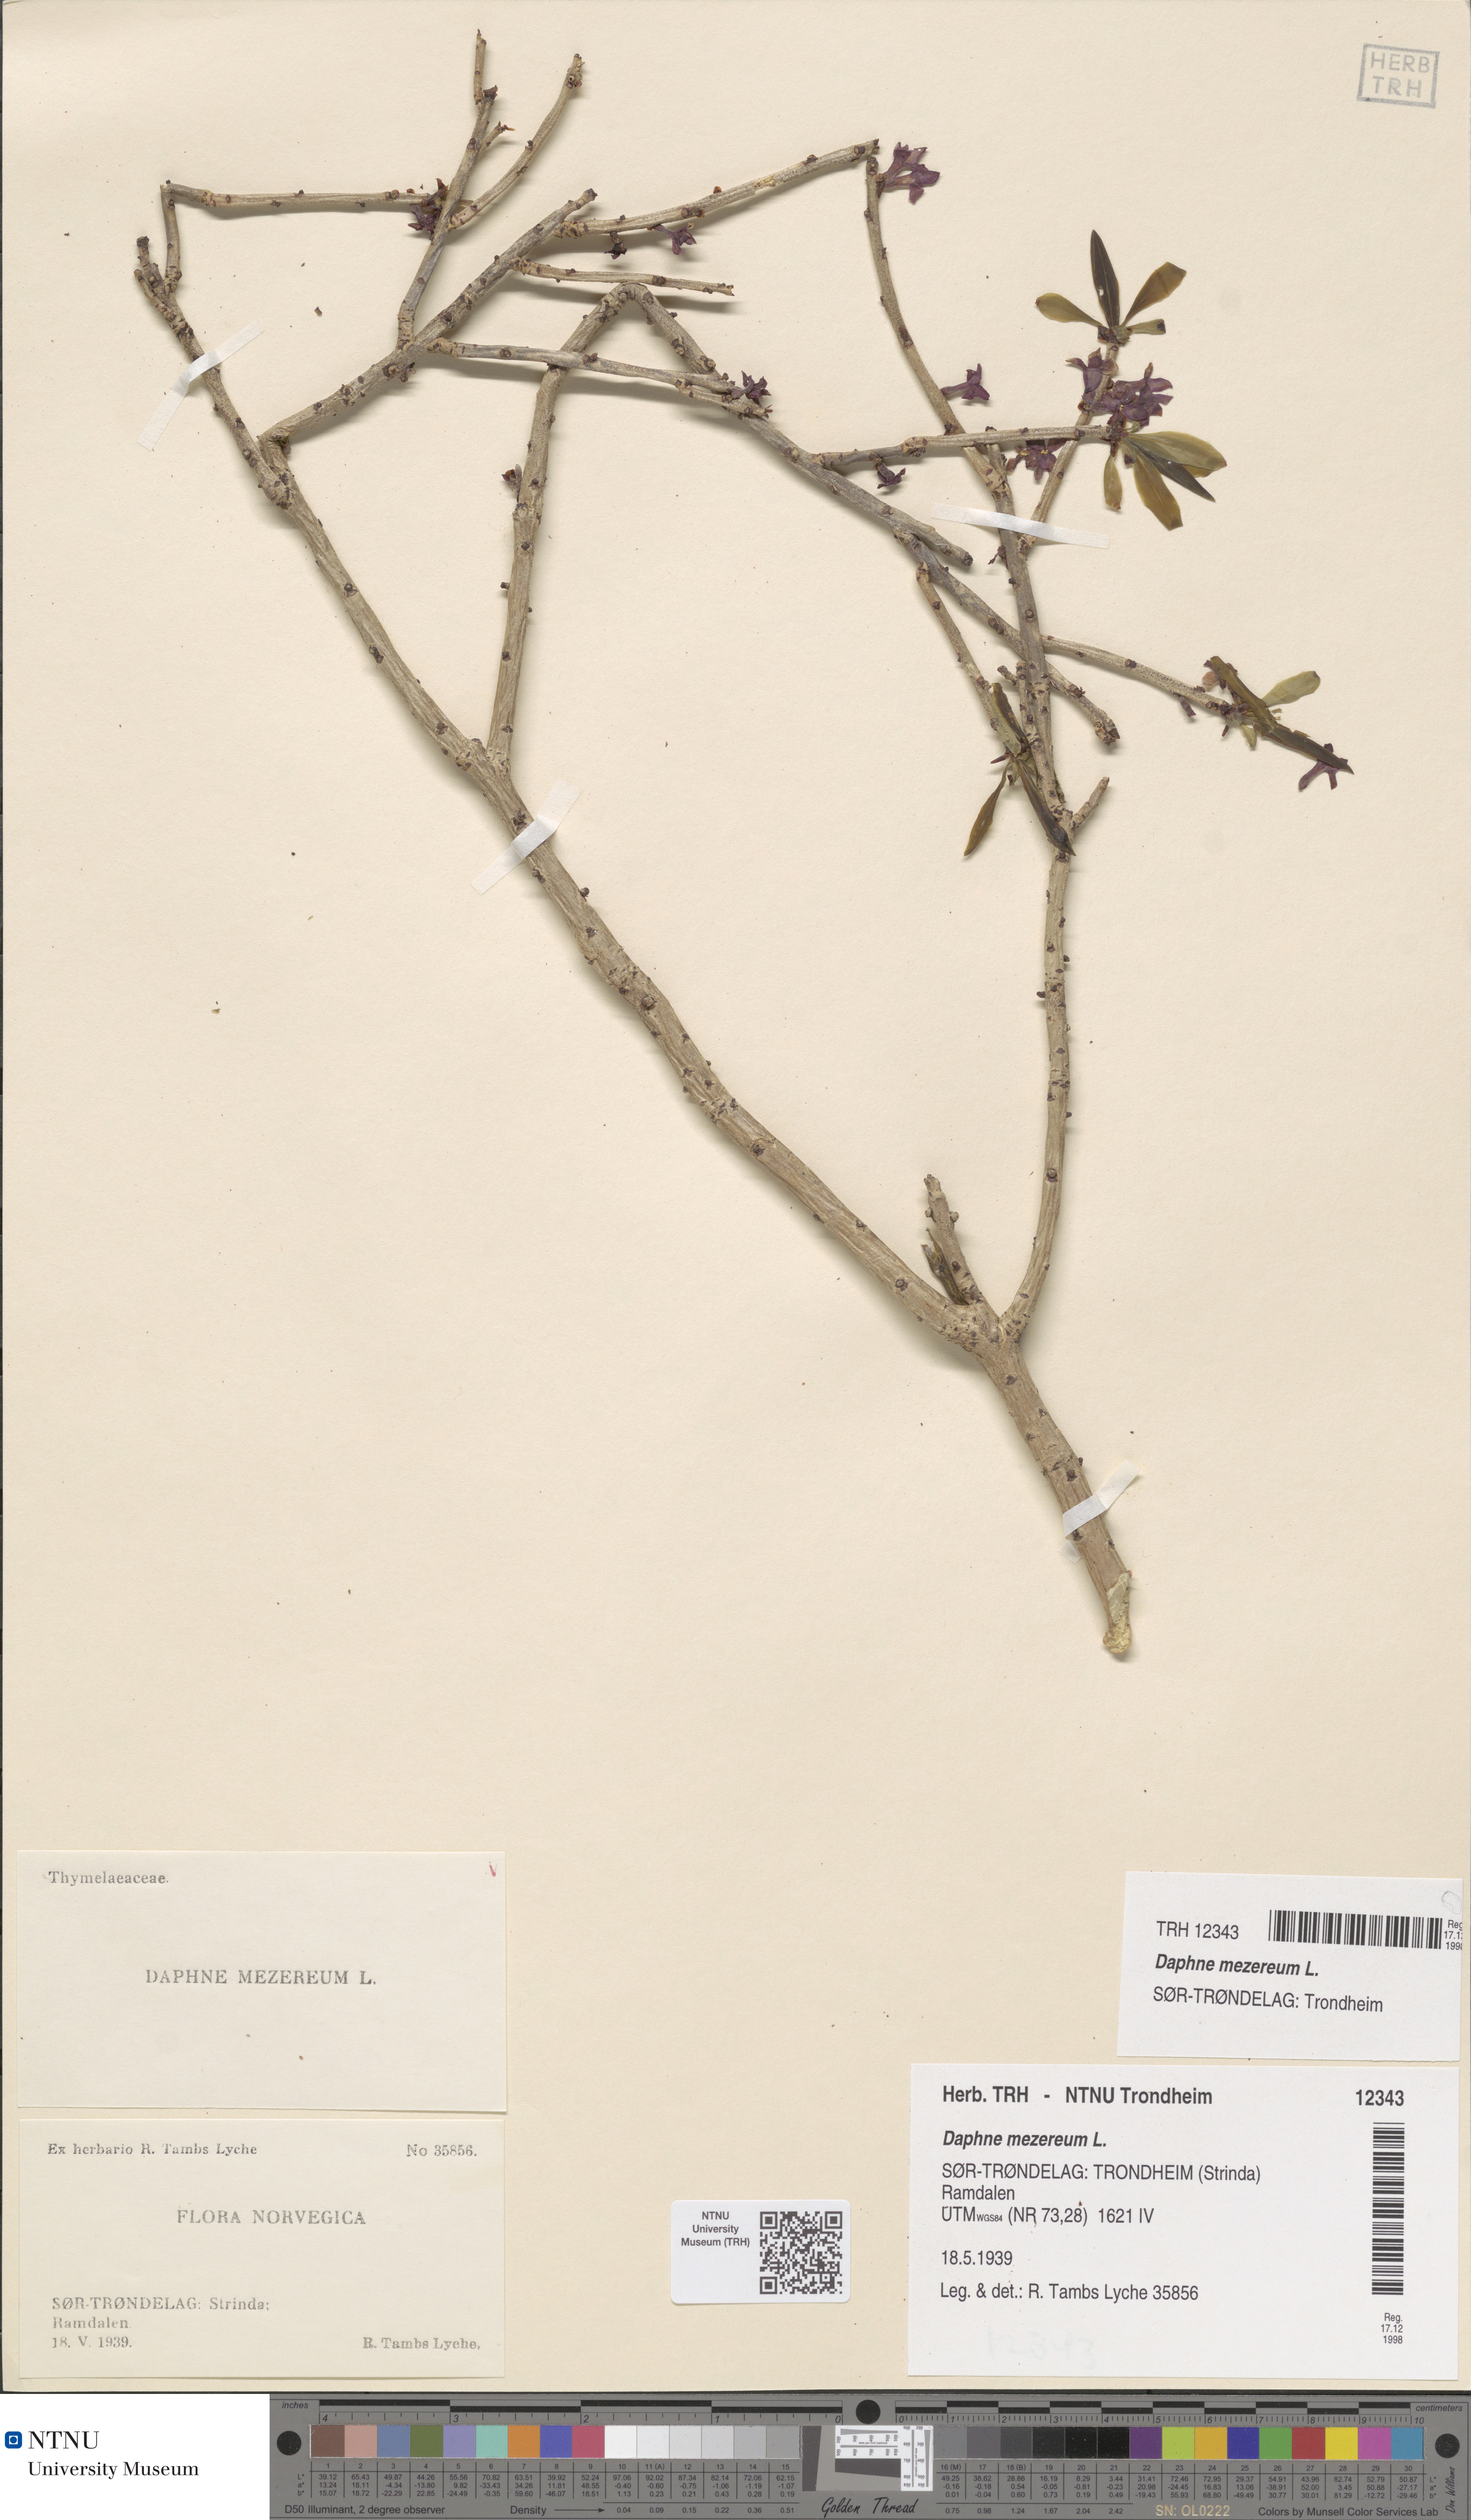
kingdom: Plantae
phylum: Tracheophyta
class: Magnoliopsida
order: Malvales
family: Thymelaeaceae
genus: Daphne
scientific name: Daphne mezereum
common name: Mezereon
